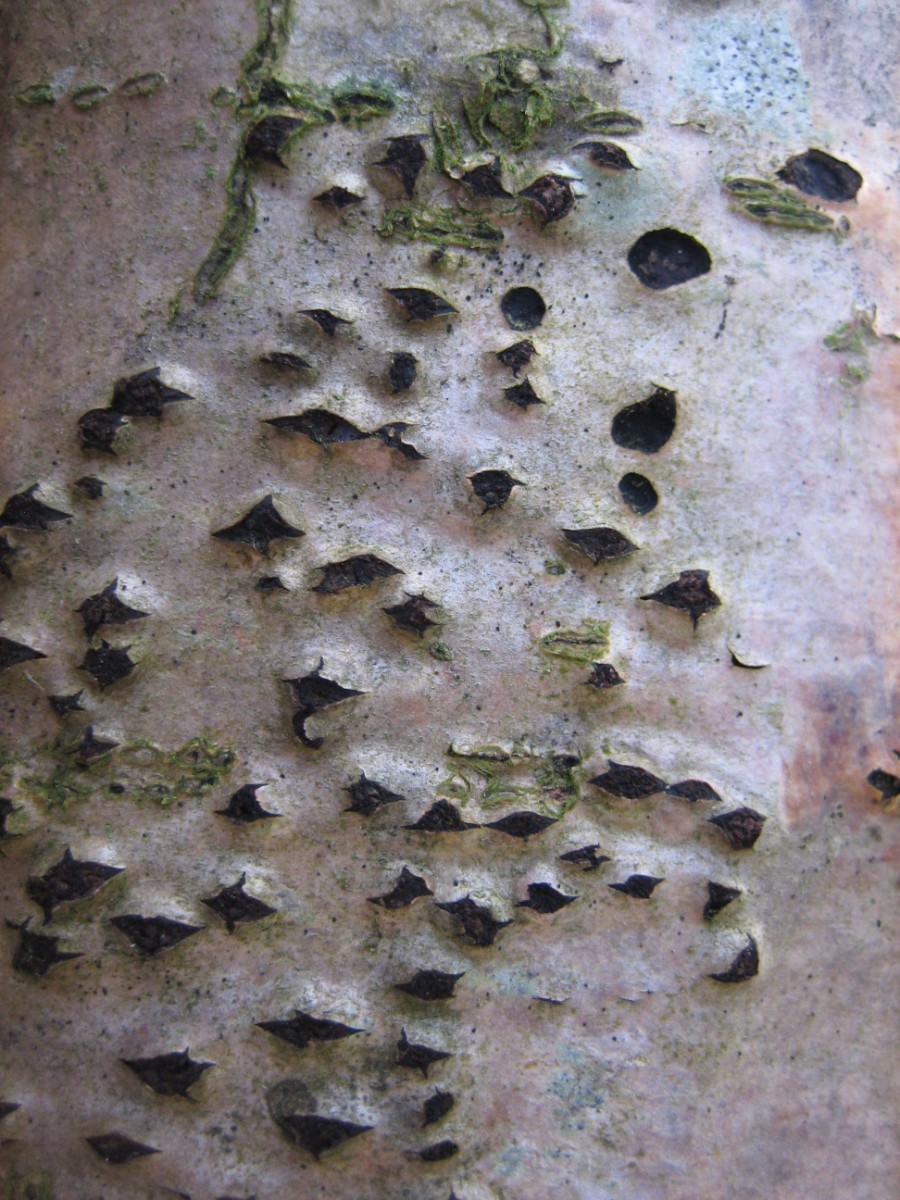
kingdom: Fungi
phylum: Ascomycota
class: Sordariomycetes
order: Xylariales
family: Diatrypaceae
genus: Diatrypella
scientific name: Diatrypella favacea
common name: klemt kulskorpe
